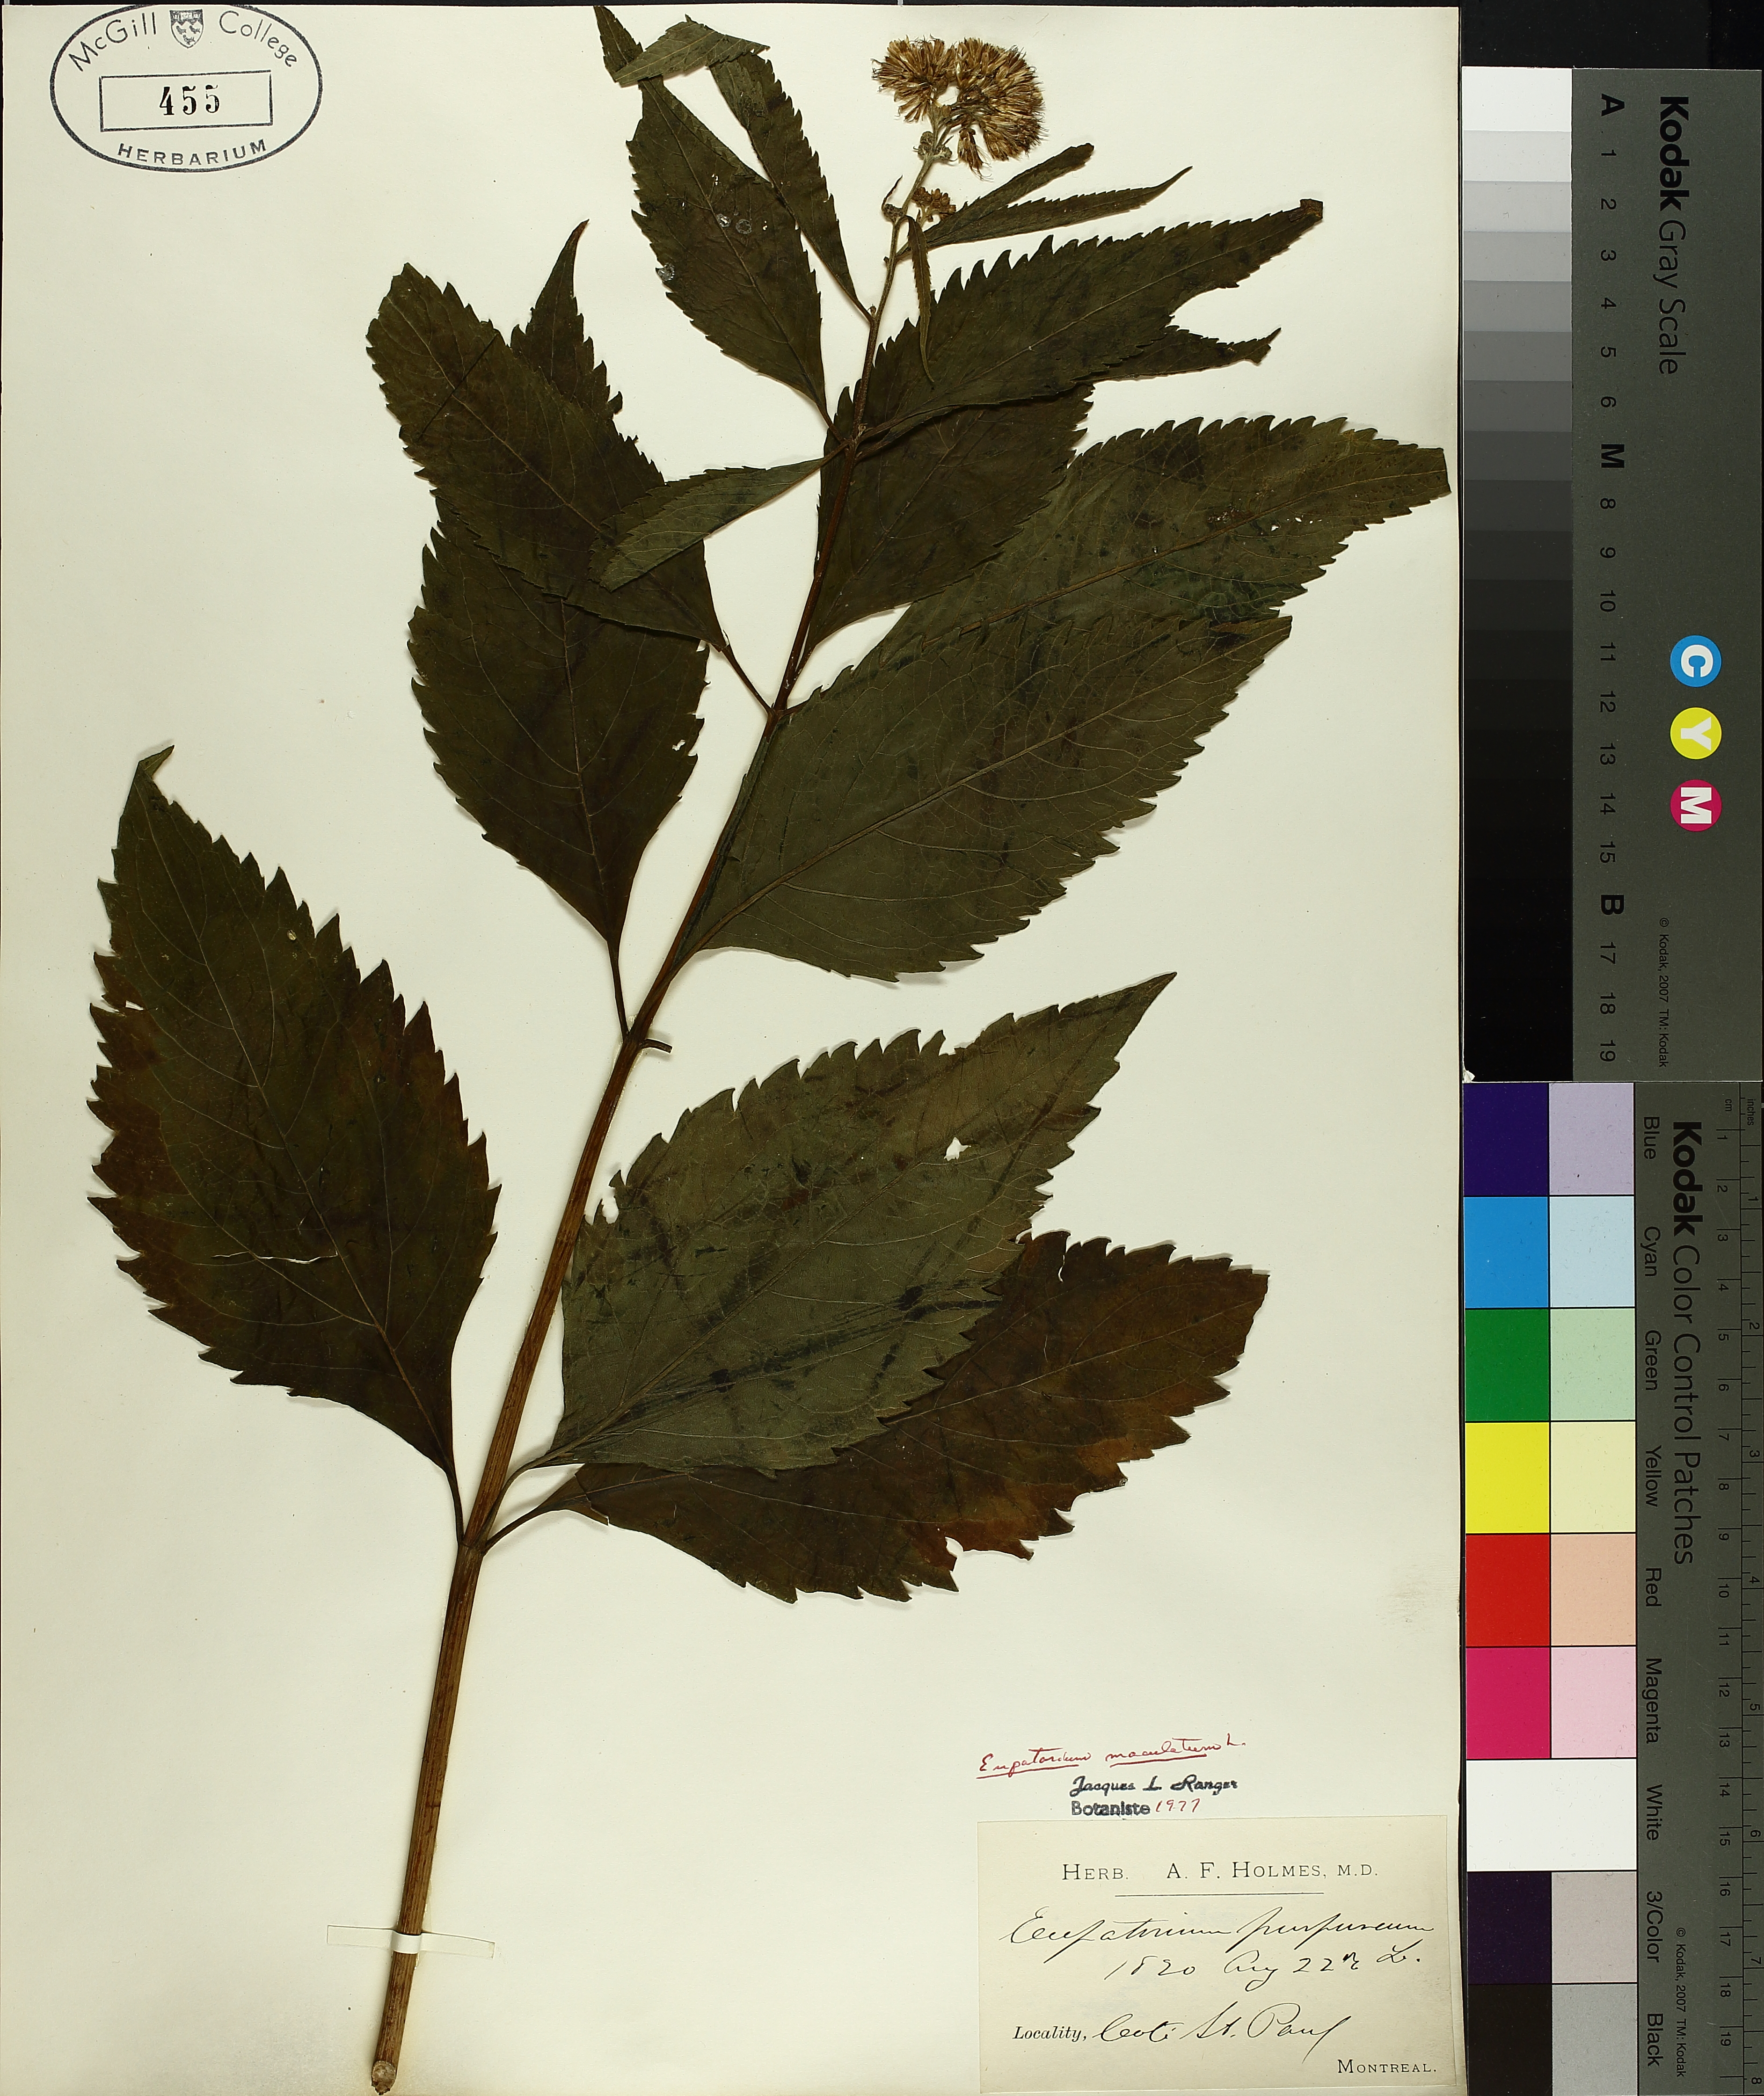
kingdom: Plantae
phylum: Tracheophyta
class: Magnoliopsida
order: Asterales
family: Asteraceae
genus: Eutrochium
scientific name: Eutrochium maculatum
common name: Spotted joe pye weed
